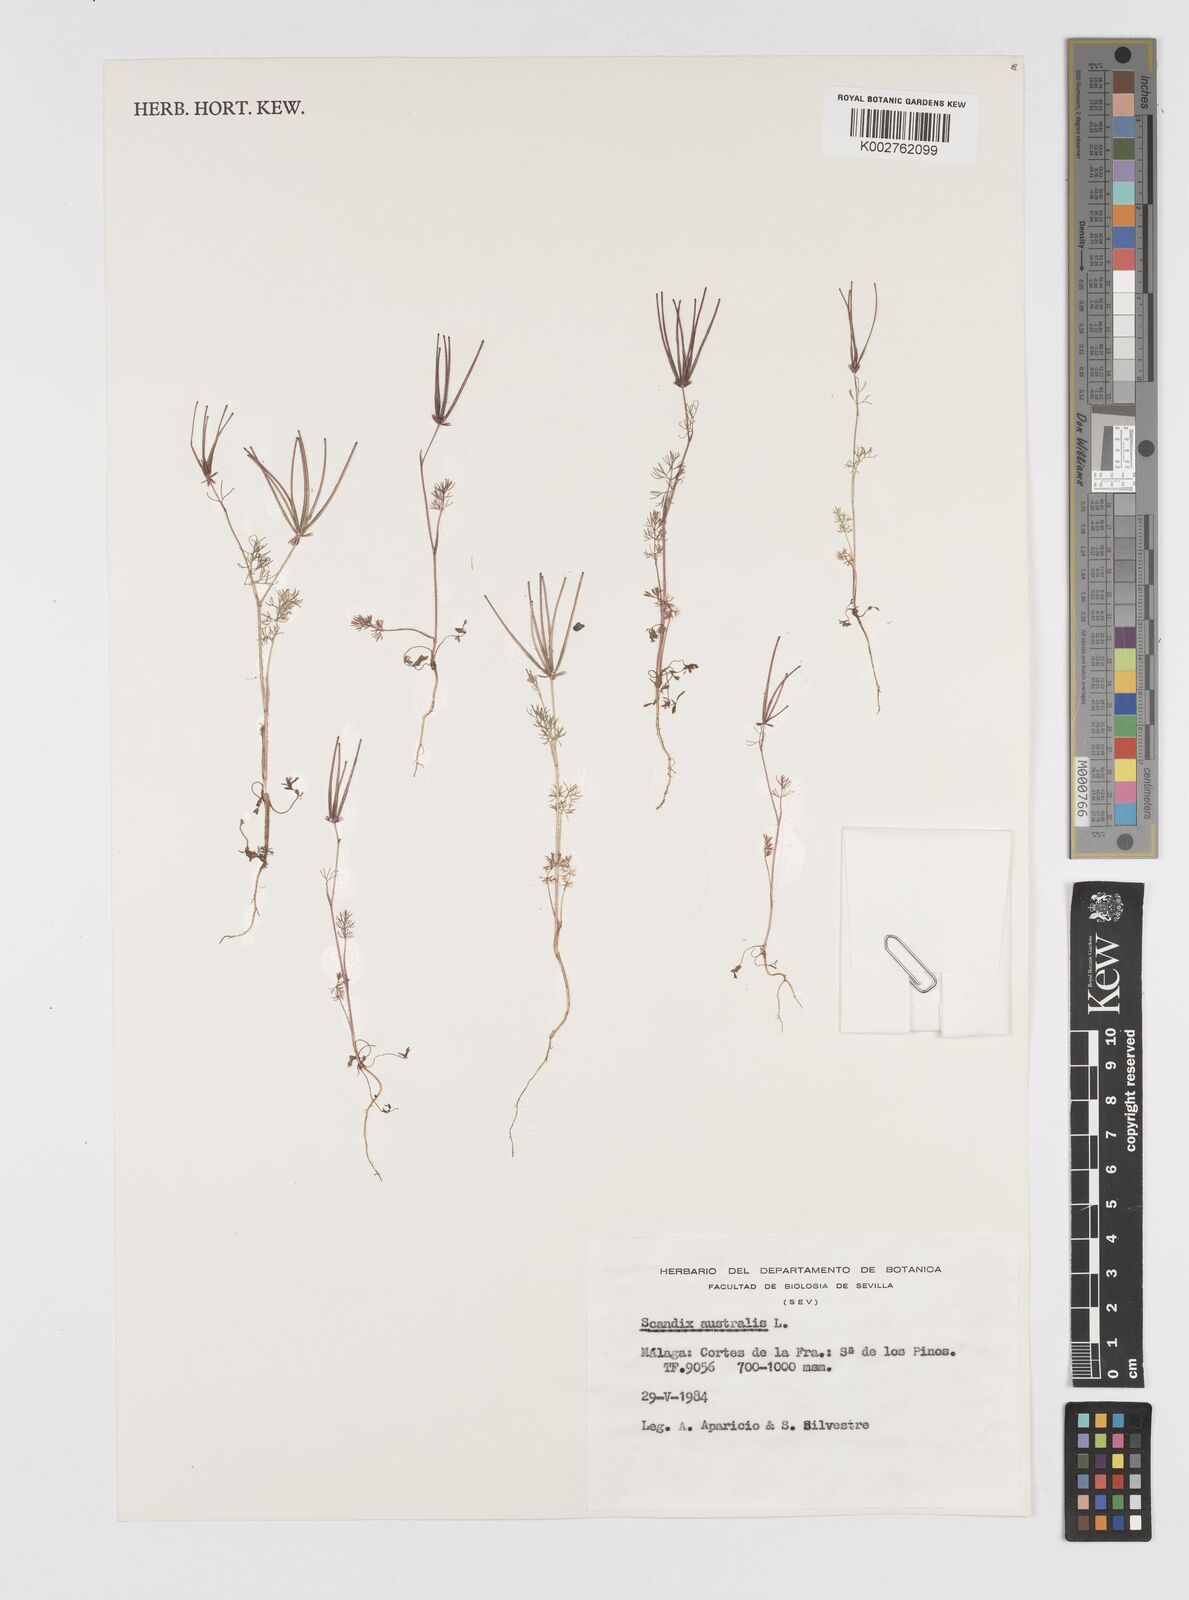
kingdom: Plantae
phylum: Tracheophyta
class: Magnoliopsida
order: Apiales
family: Apiaceae
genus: Scandix
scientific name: Scandix australis
